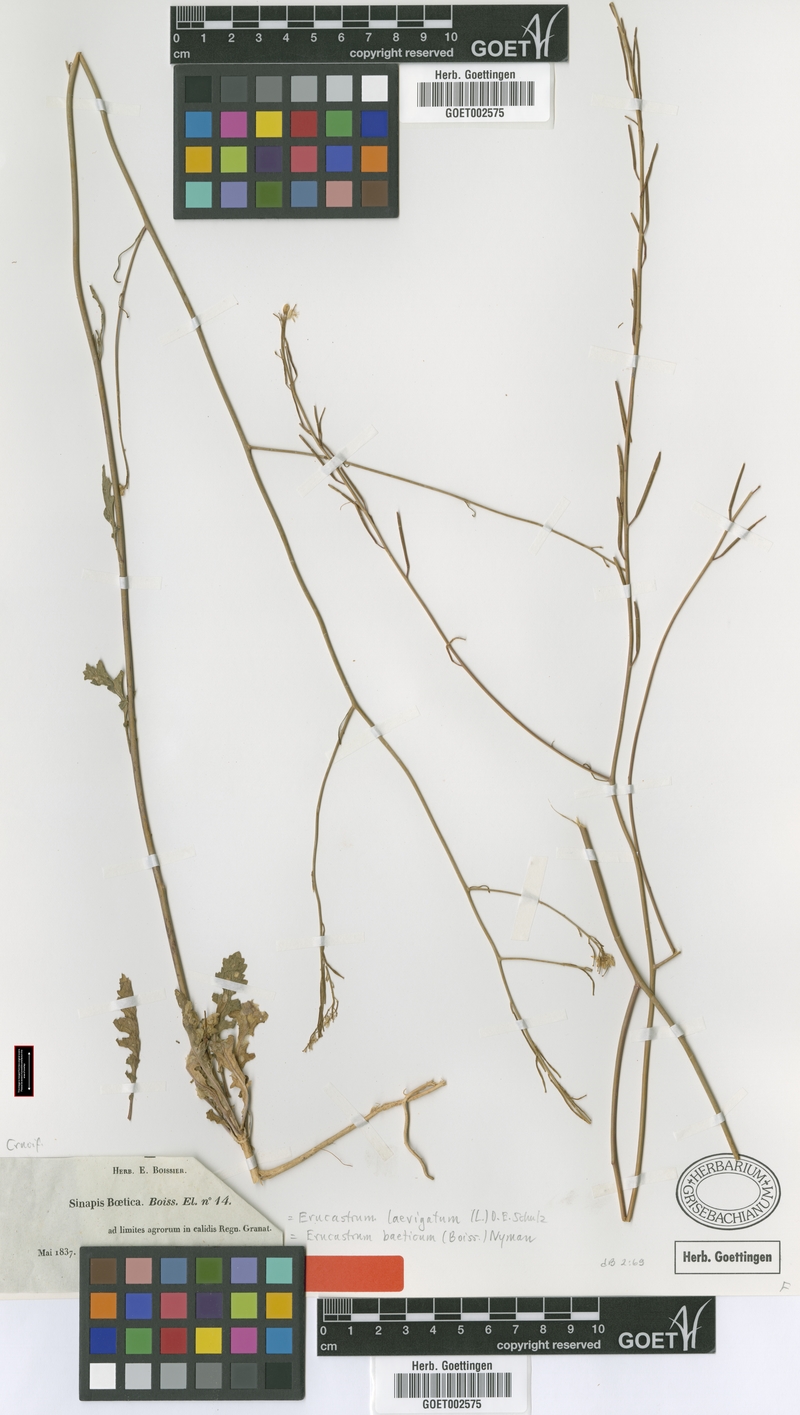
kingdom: Plantae
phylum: Tracheophyta
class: Magnoliopsida
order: Brassicales
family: Brassicaceae
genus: Erucastrum
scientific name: Erucastrum virgatum
